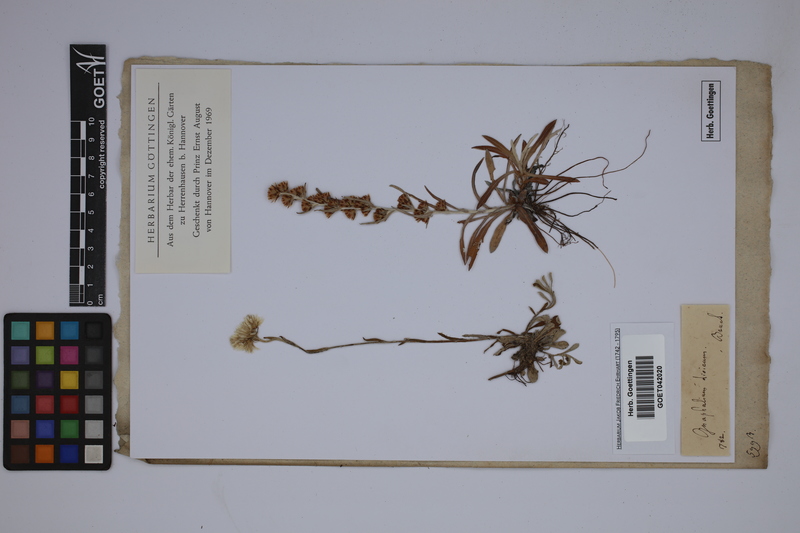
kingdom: Plantae
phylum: Tracheophyta
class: Magnoliopsida
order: Asterales
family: Asteraceae
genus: Antennaria
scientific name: Antennaria dioica
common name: Mountain everlasting
